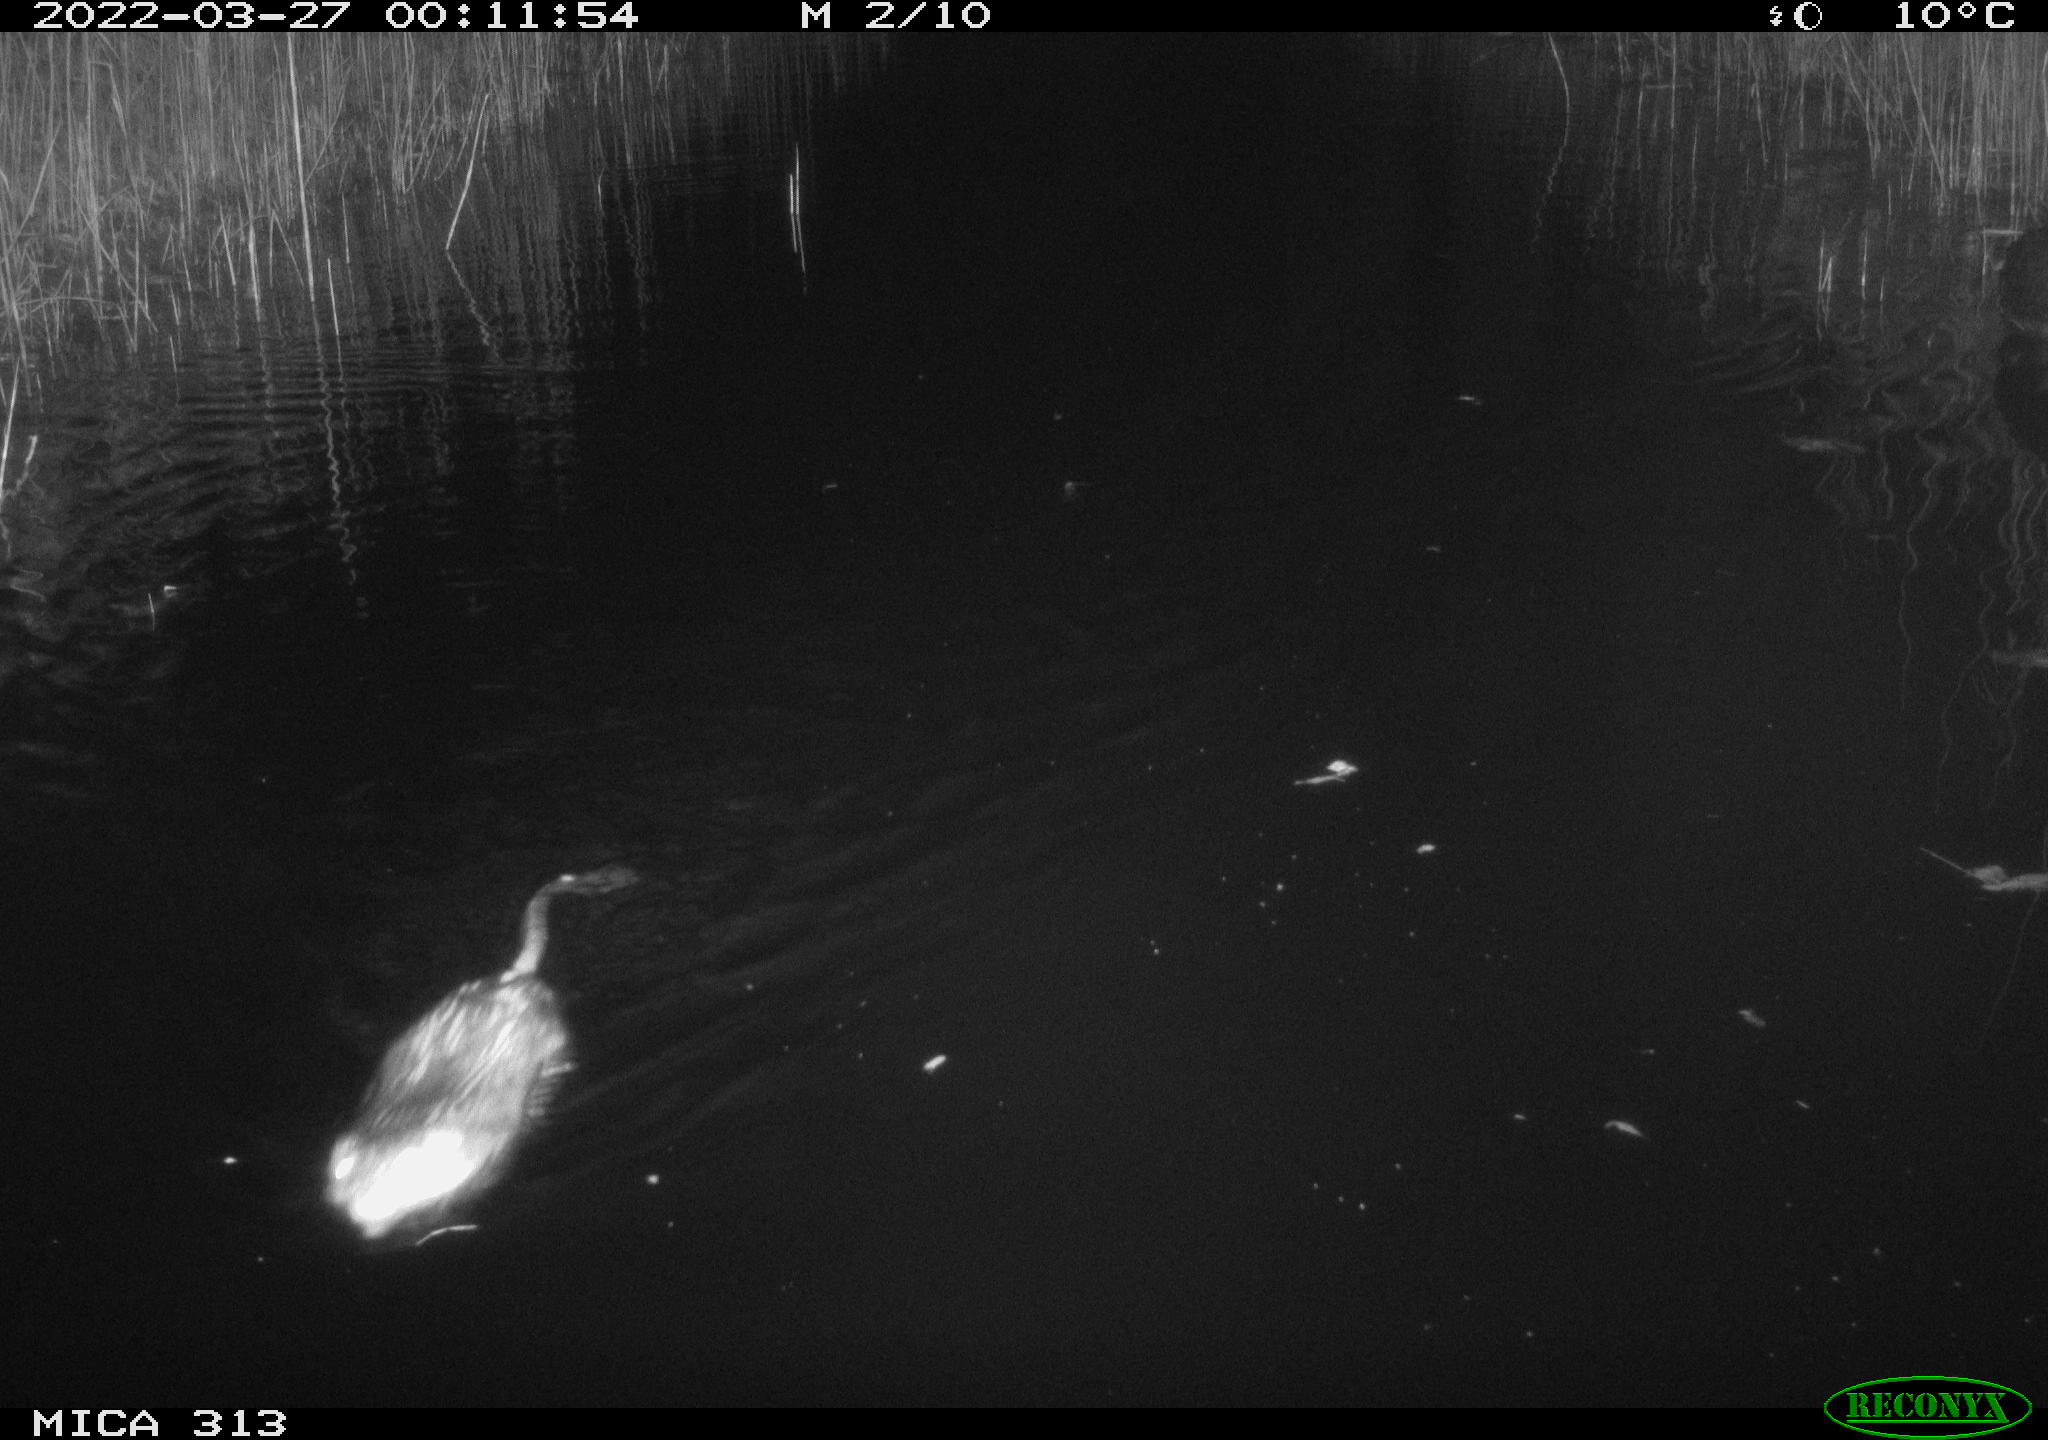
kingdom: Animalia
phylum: Chordata
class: Mammalia
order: Rodentia
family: Cricetidae
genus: Ondatra
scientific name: Ondatra zibethicus
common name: Muskrat
